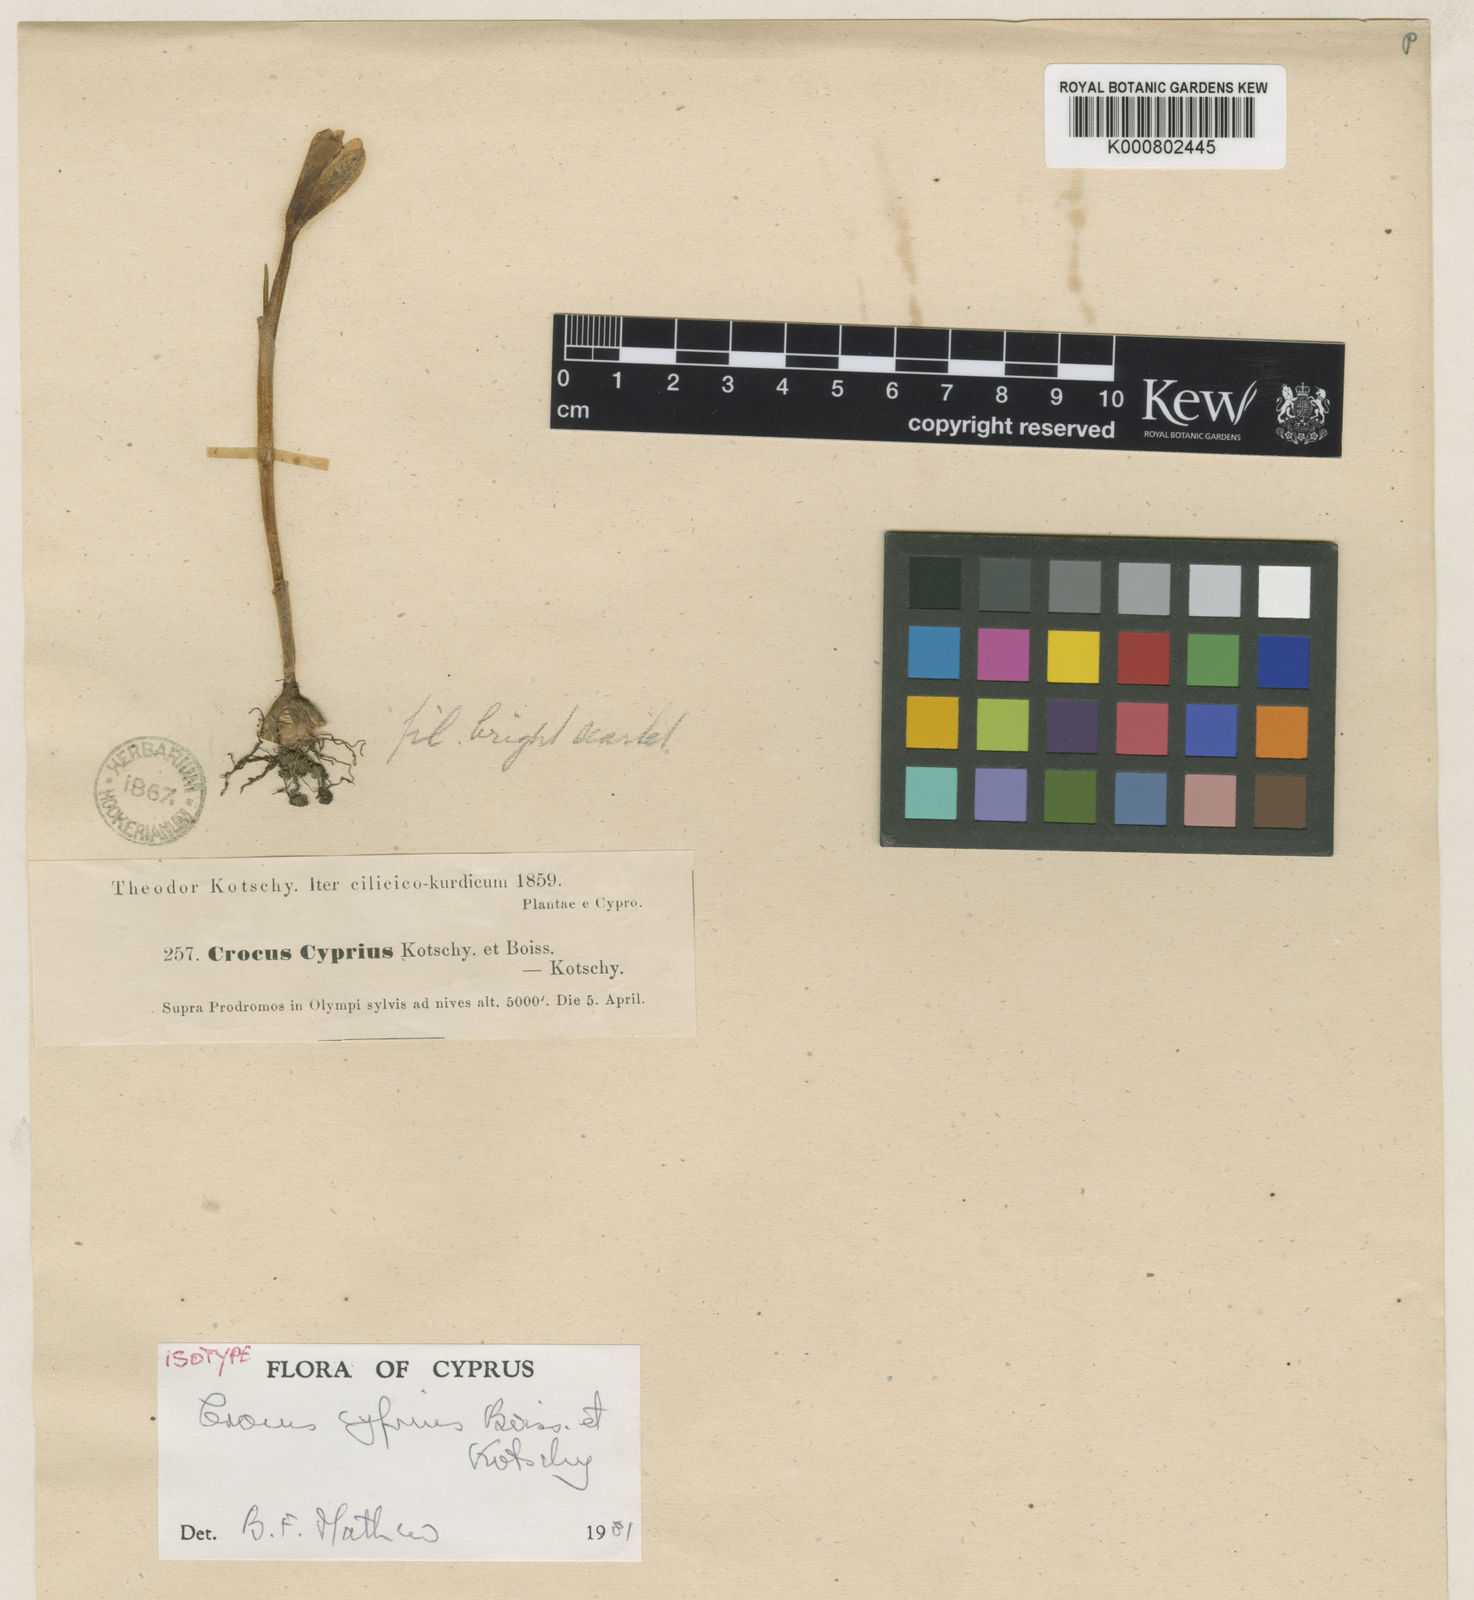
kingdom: Plantae
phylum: Tracheophyta
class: Liliopsida
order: Asparagales
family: Iridaceae
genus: Crocus
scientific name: Crocus cyprius
